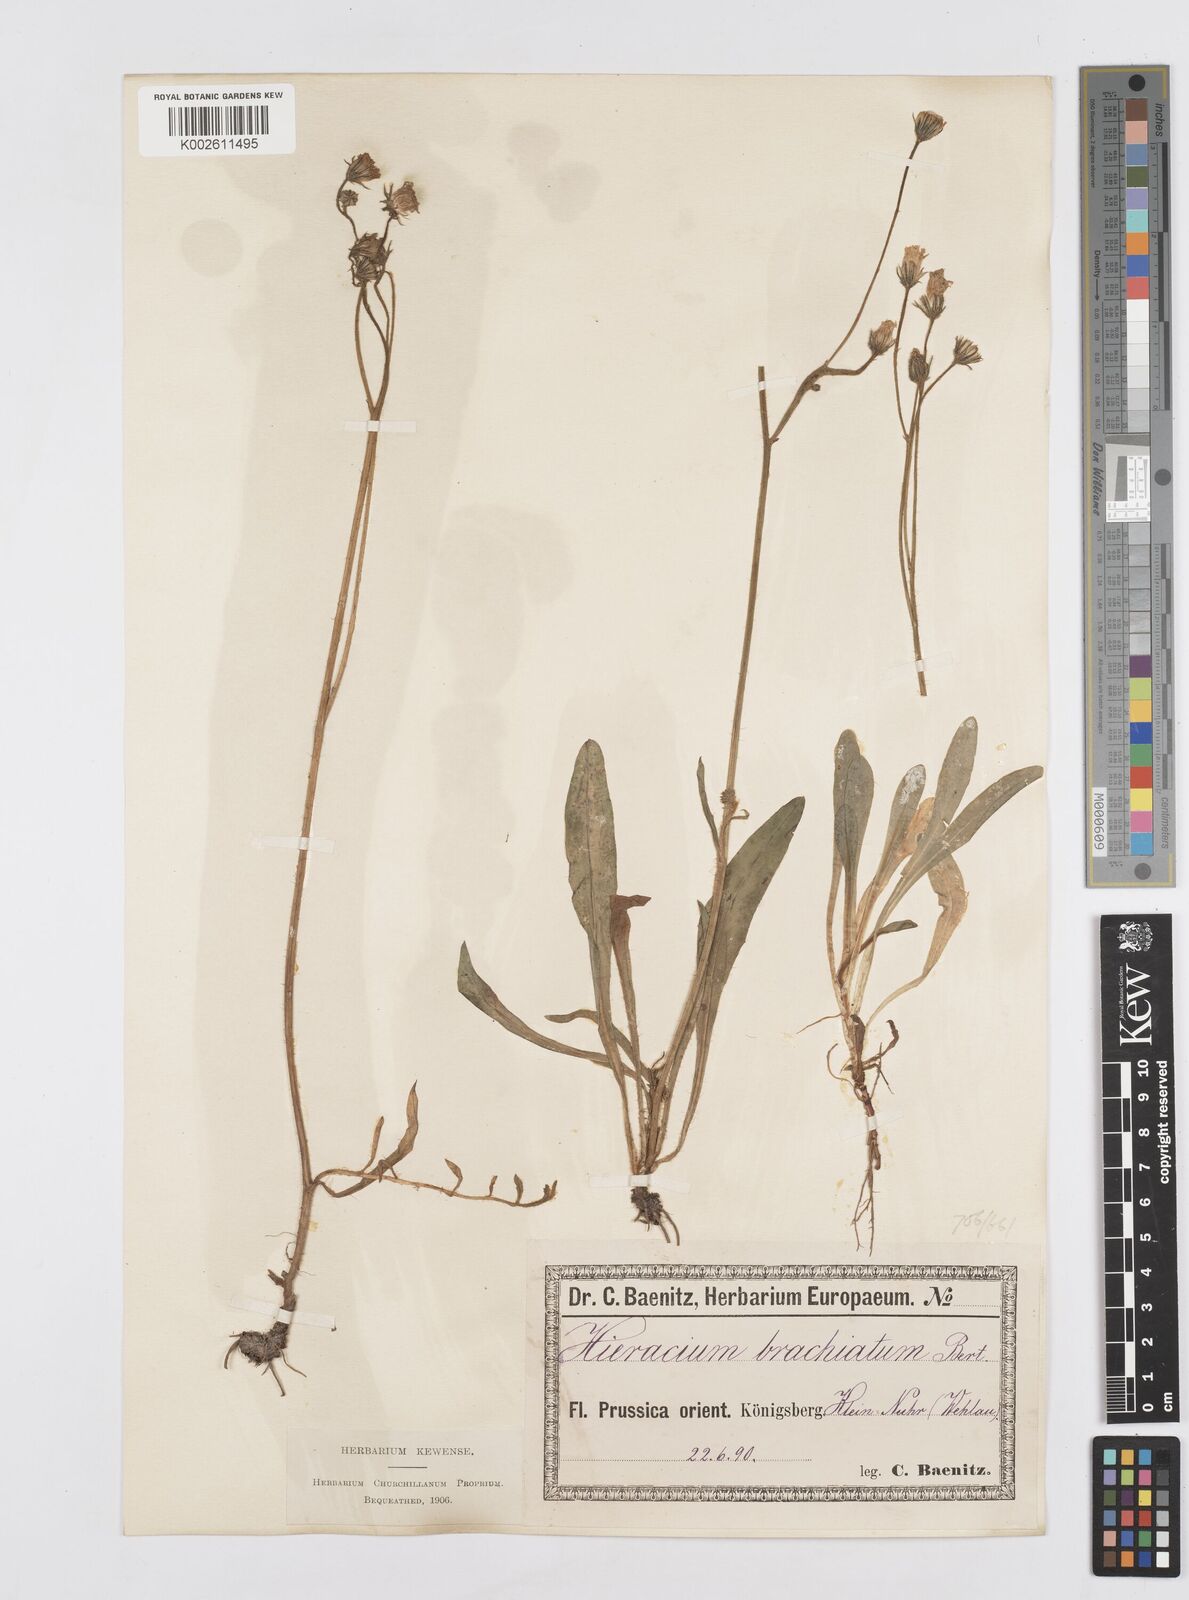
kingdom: Plantae
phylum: Tracheophyta
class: Magnoliopsida
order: Asterales
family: Asteraceae
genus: Pilosella
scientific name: Pilosella acutifolia
